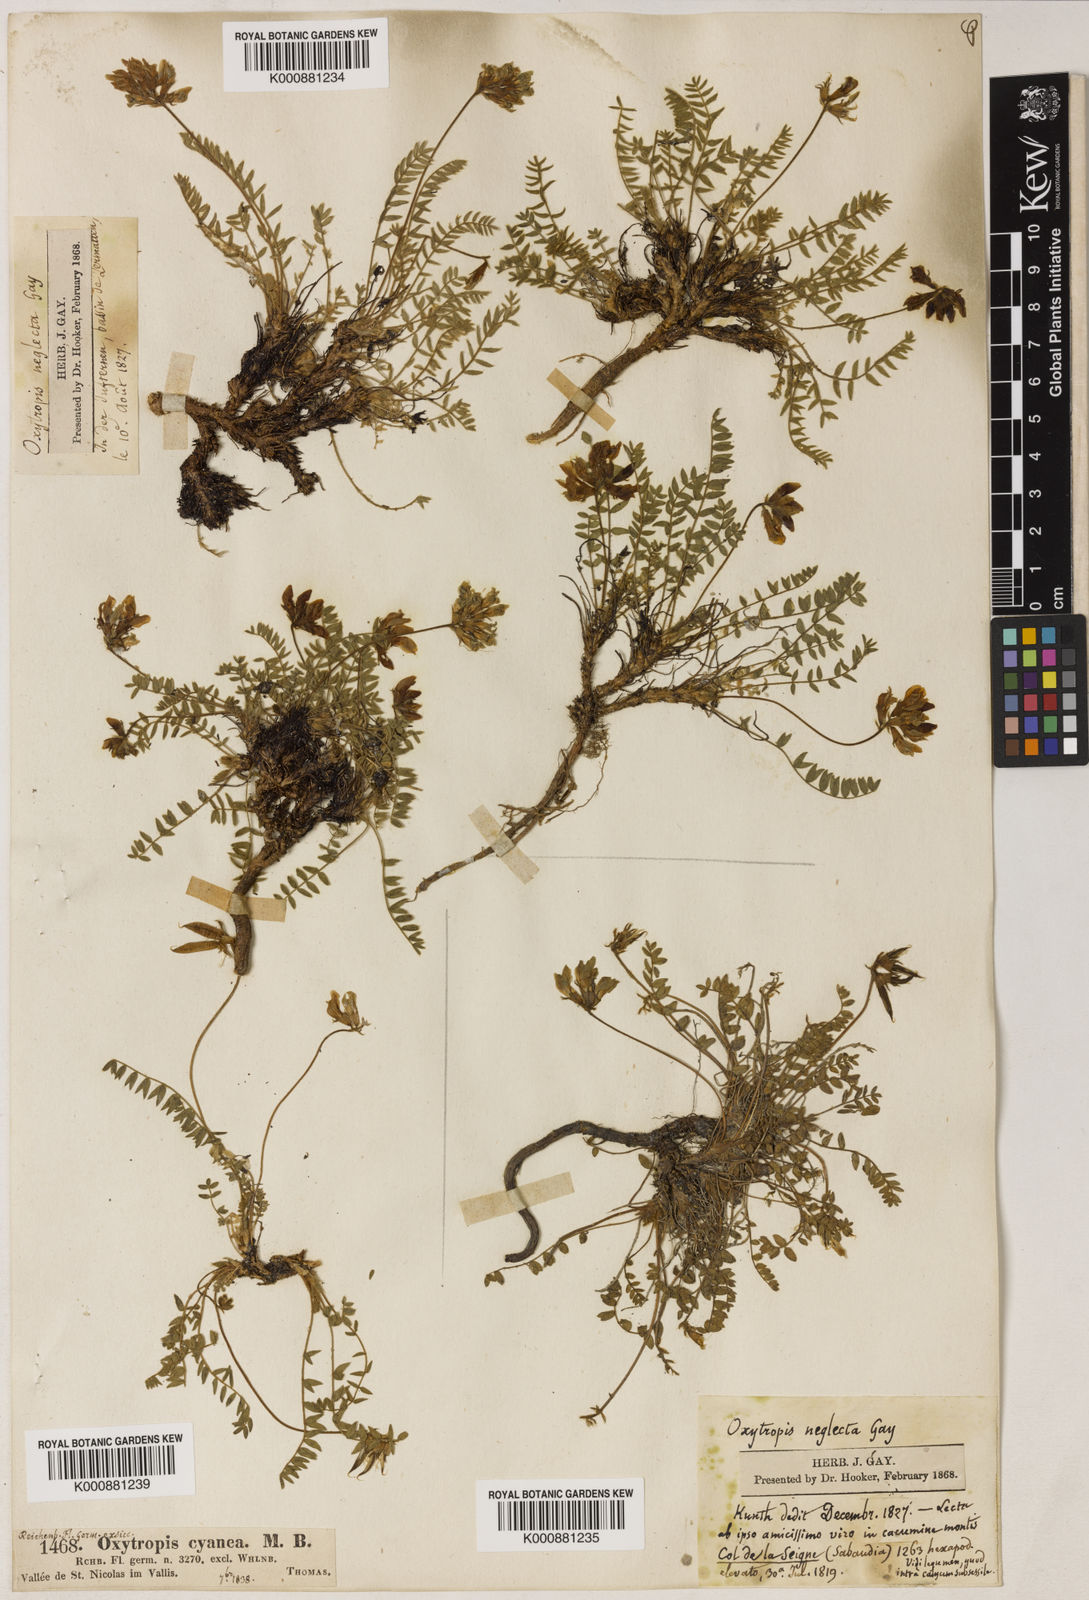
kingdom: Plantae
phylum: Tracheophyta
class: Magnoliopsida
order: Fabales
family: Fabaceae
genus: Oxytropis
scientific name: Oxytropis neglecta
